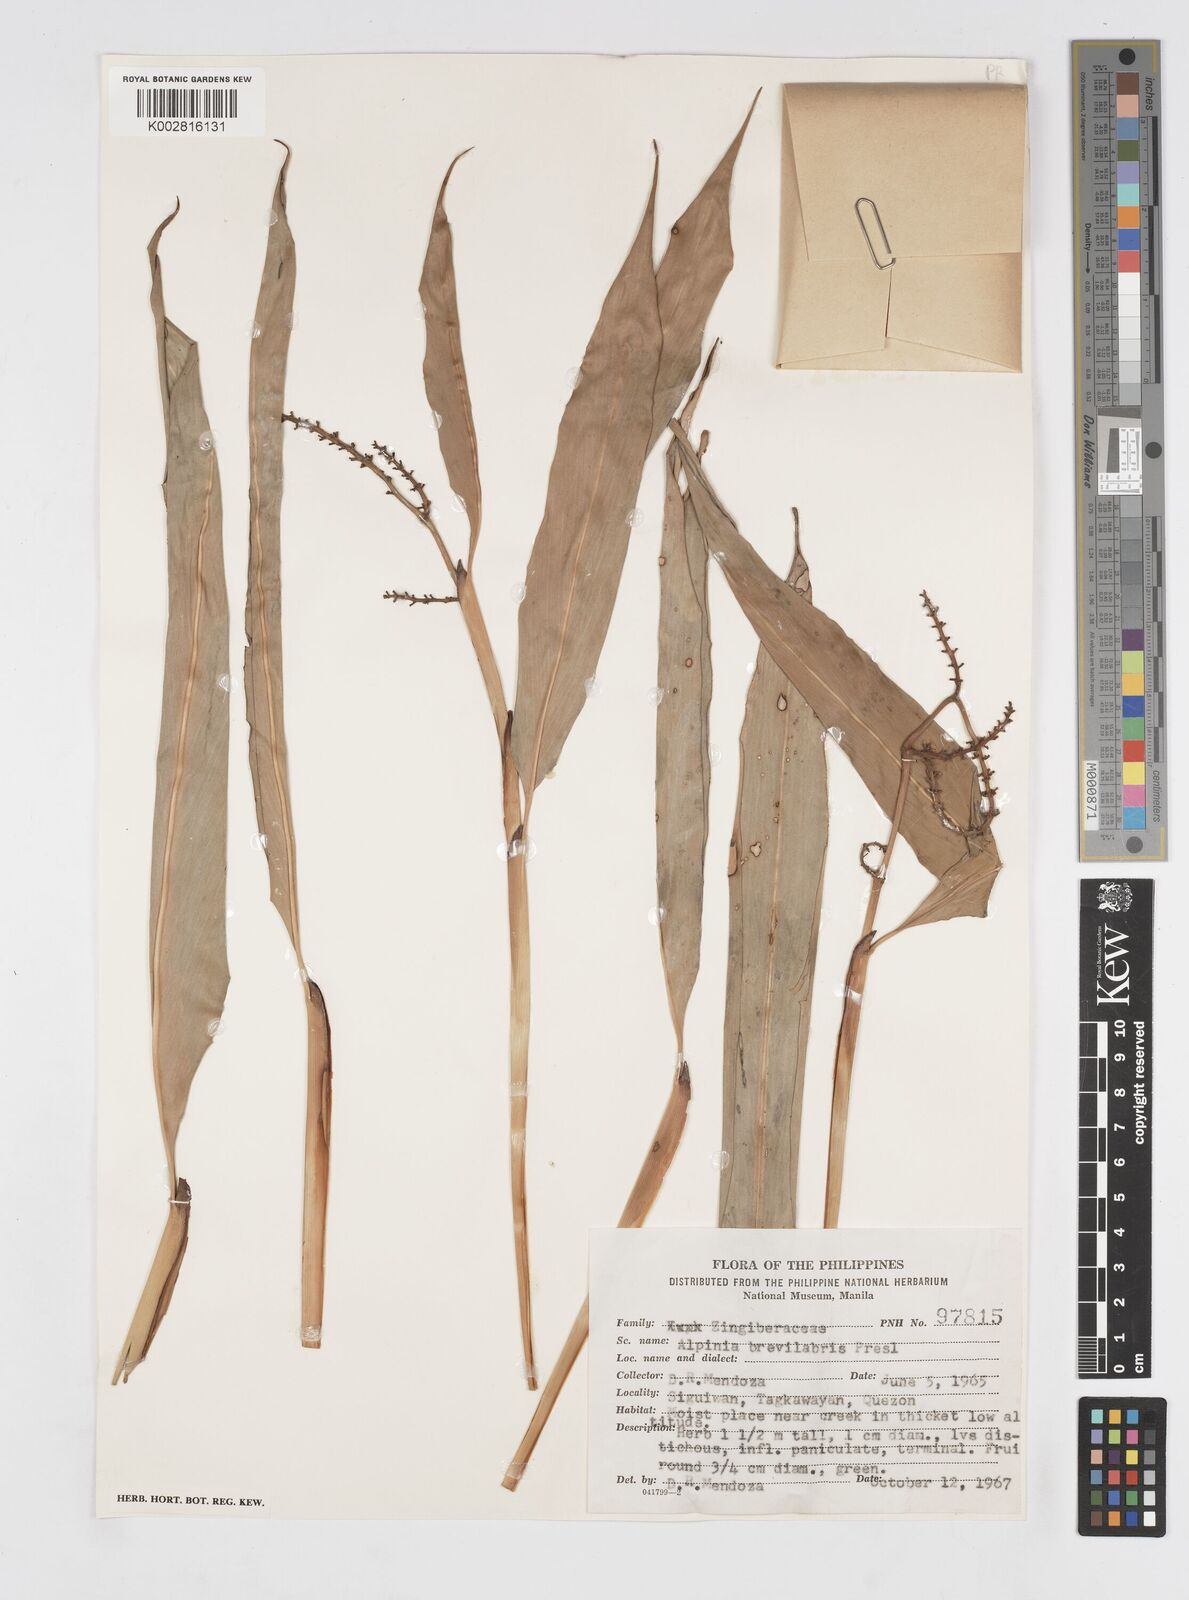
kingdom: Plantae
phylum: Tracheophyta
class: Liliopsida
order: Zingiberales
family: Zingiberaceae
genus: Alpinia
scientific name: Alpinia brevilabris
